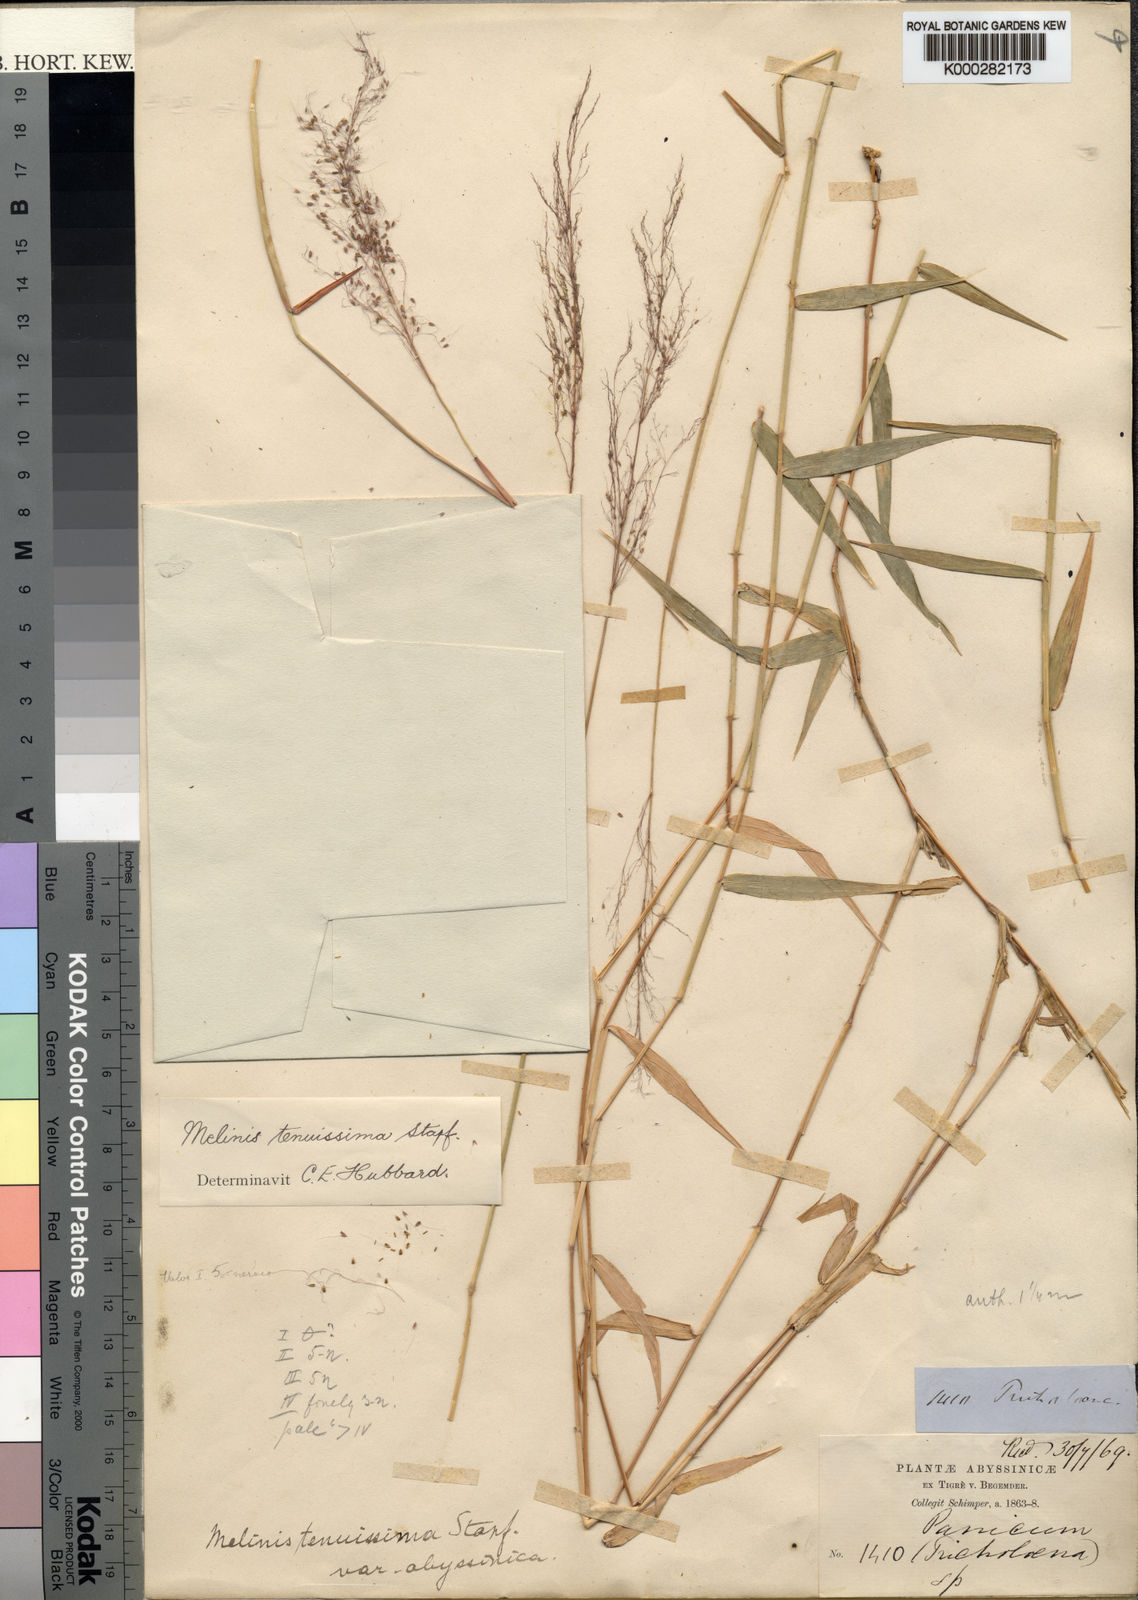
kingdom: Plantae
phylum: Tracheophyta
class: Liliopsida
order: Poales
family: Poaceae
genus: Melinis
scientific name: Melinis tenuissima
